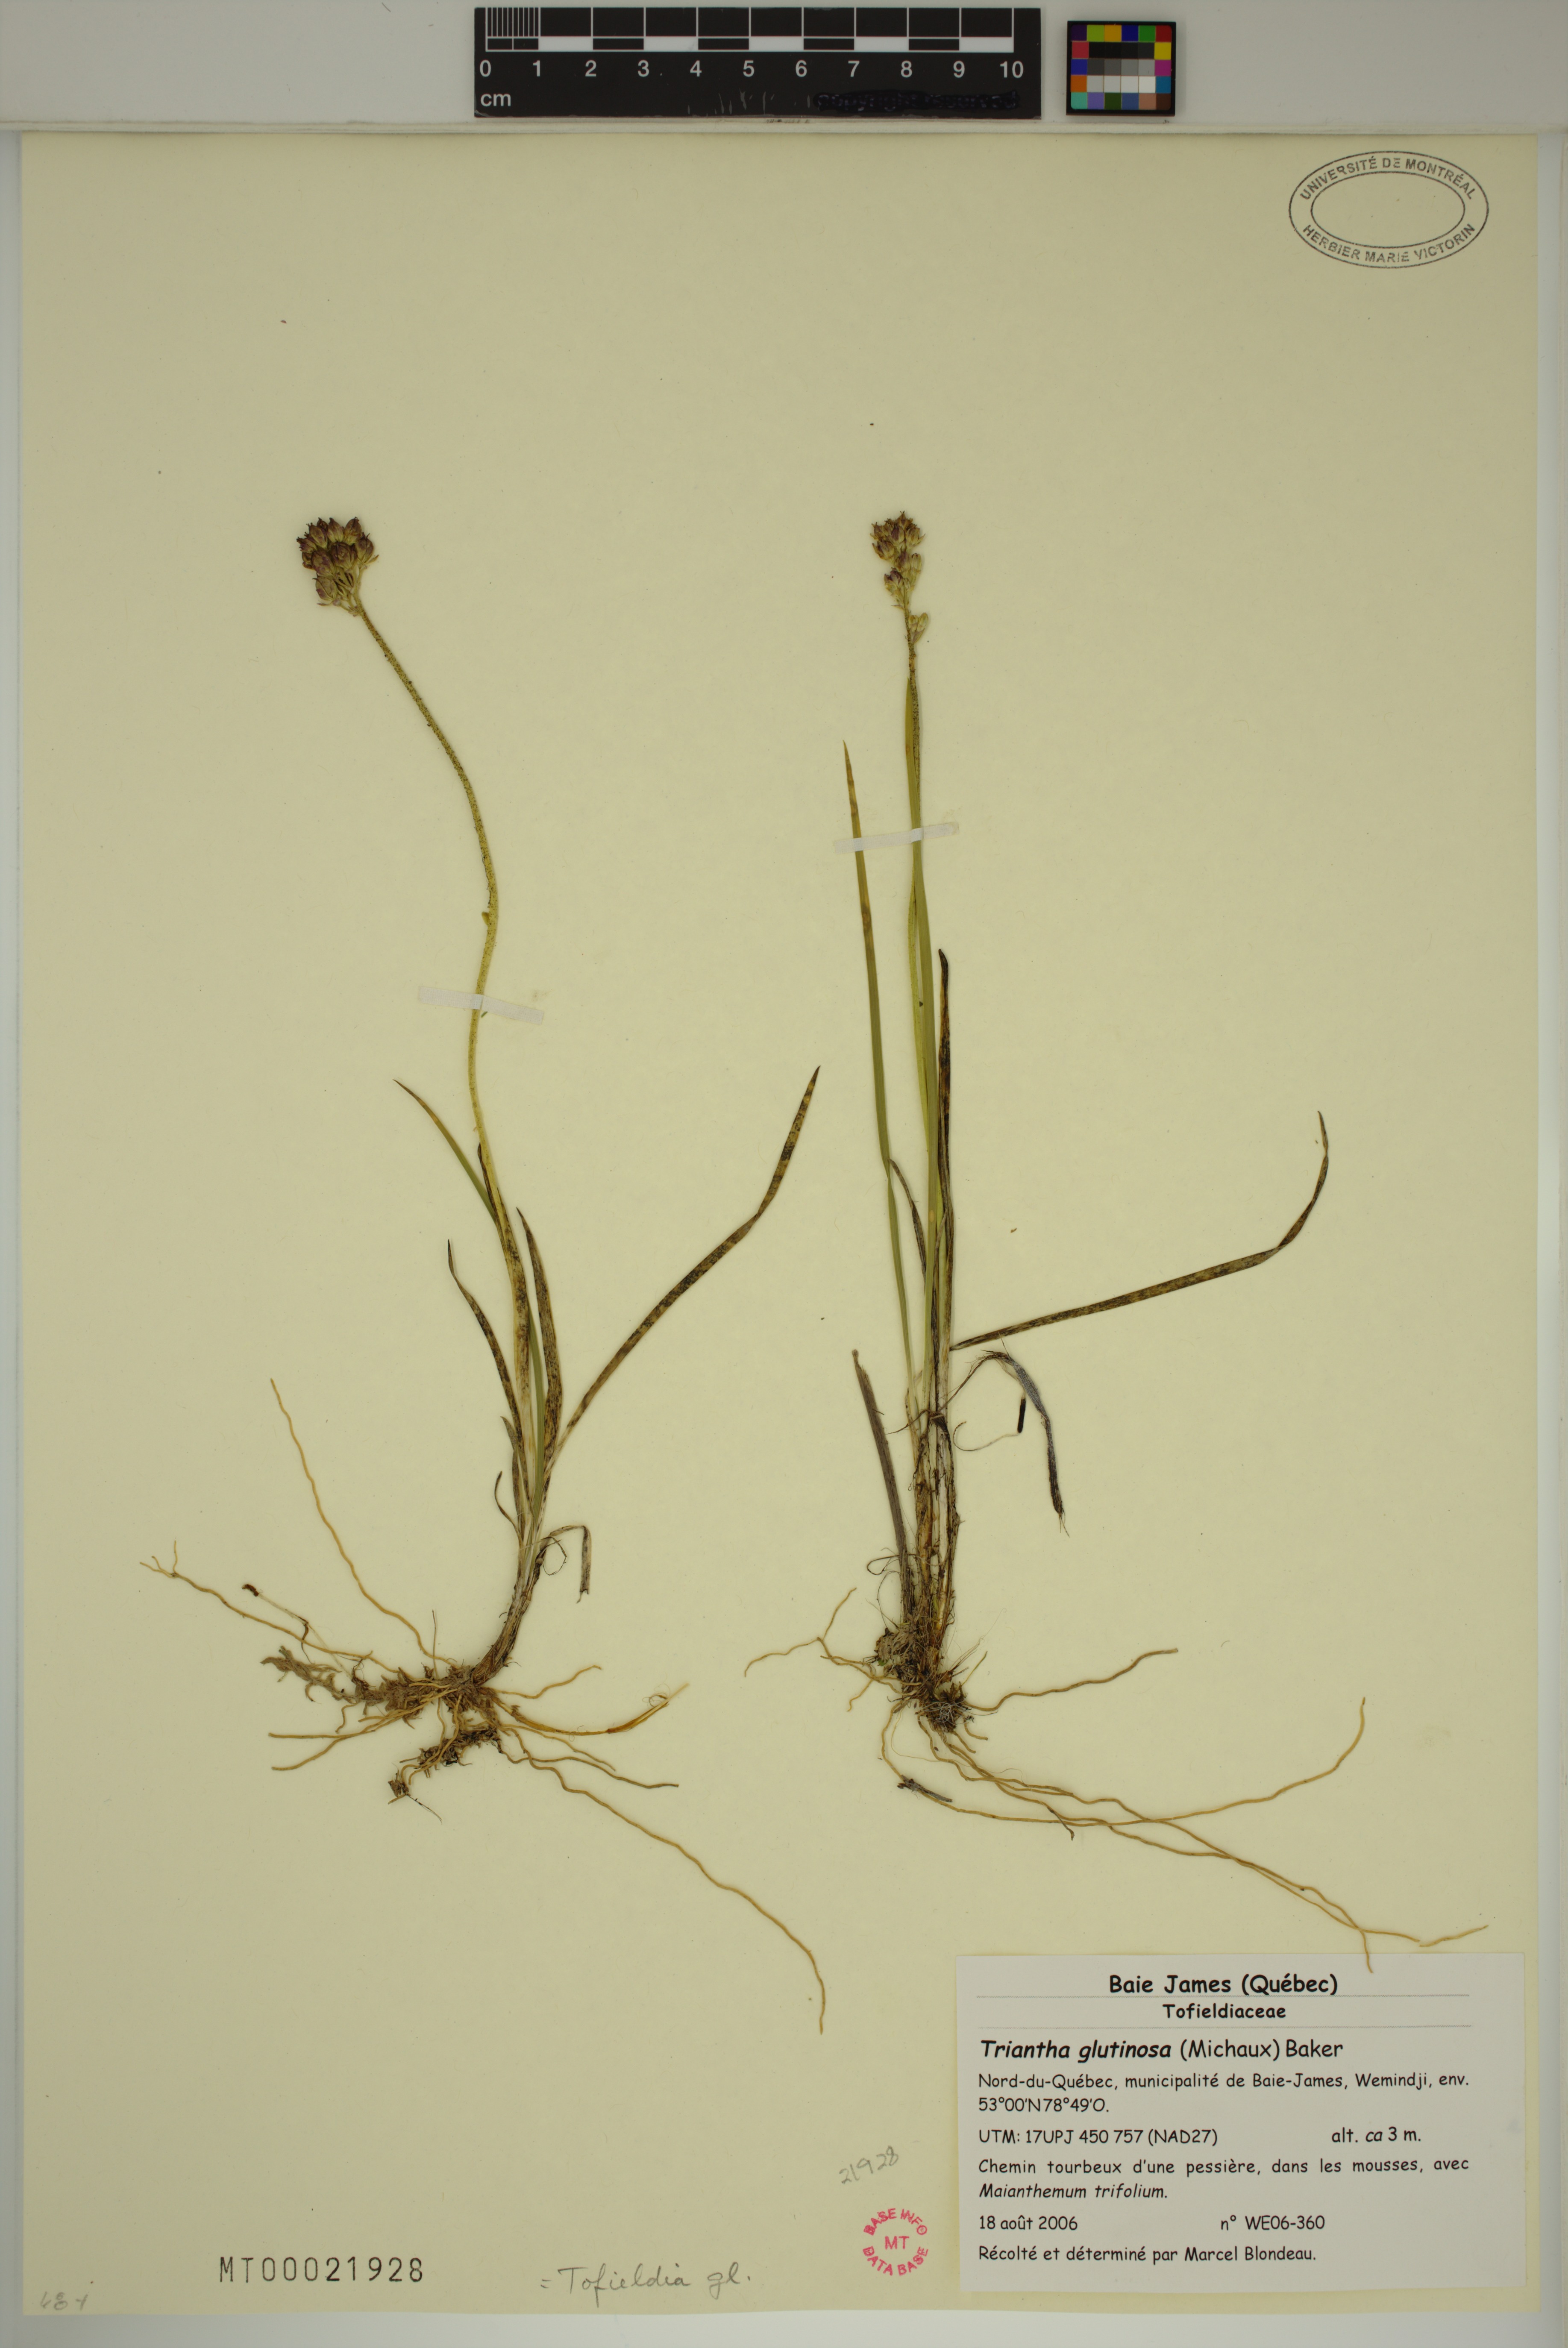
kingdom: Plantae
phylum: Tracheophyta
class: Liliopsida
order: Alismatales
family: Tofieldiaceae
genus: Triantha
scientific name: Triantha glutinosa
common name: Glutinous tofieldia
